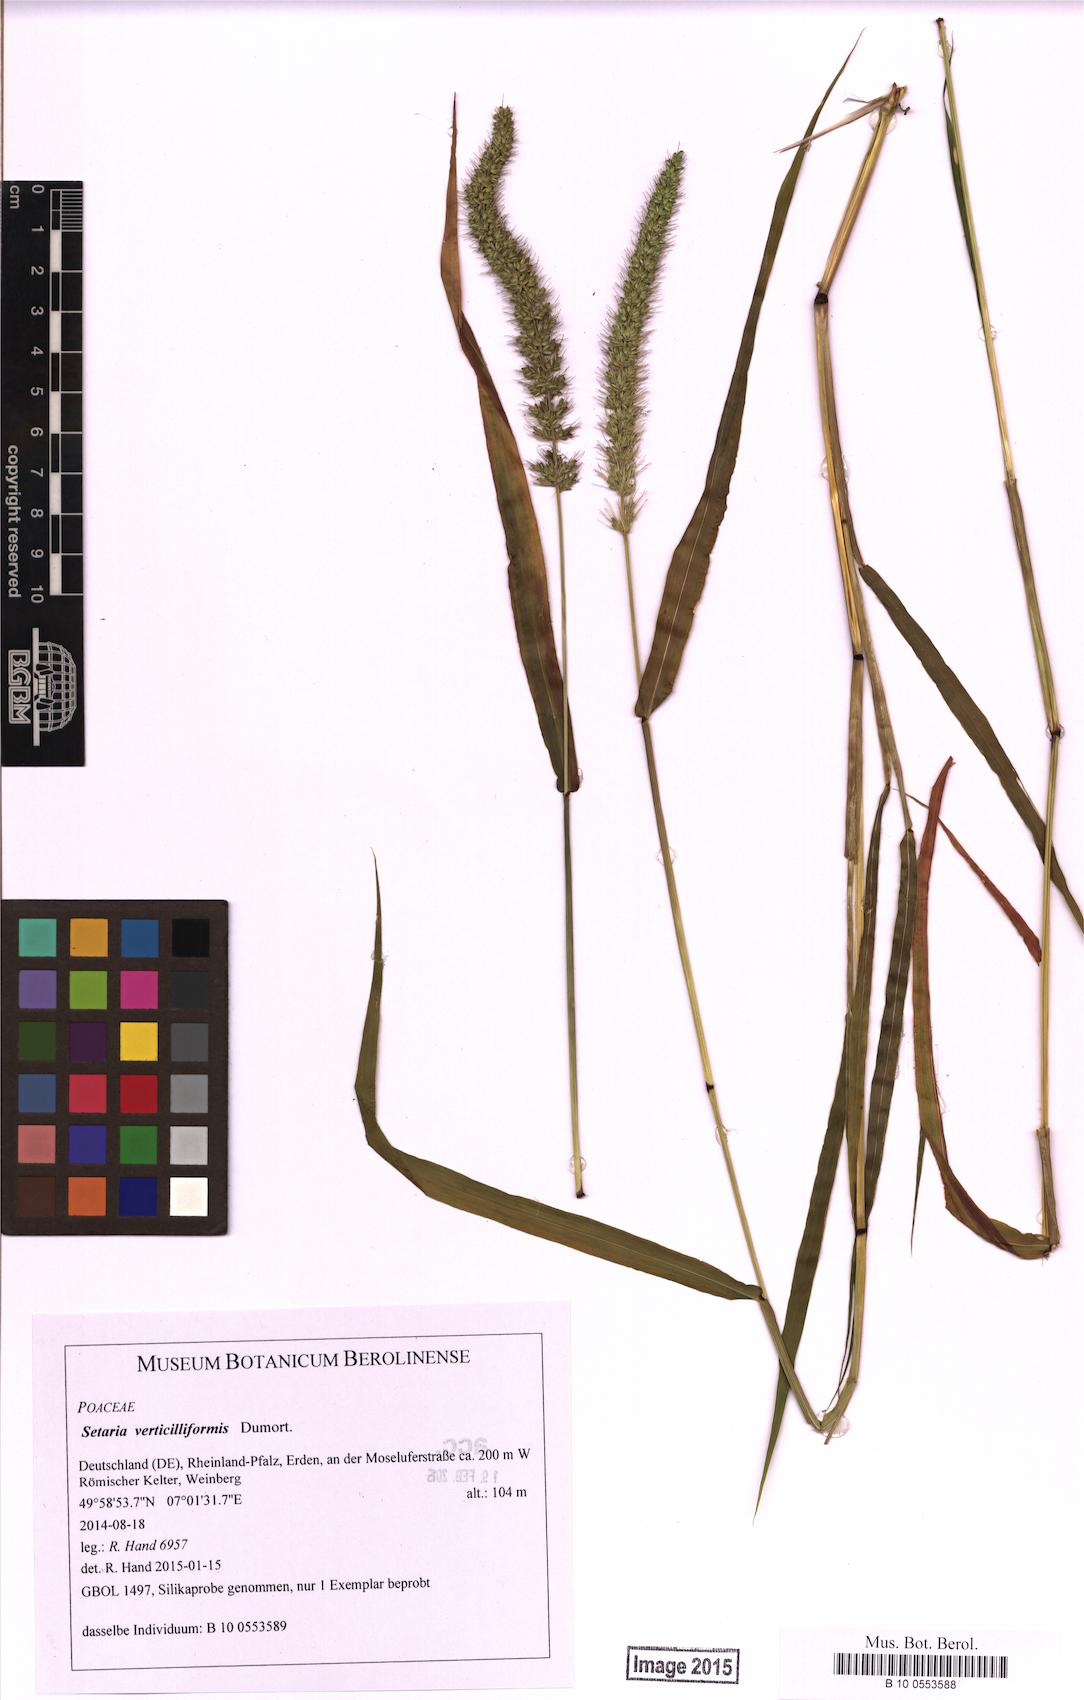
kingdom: Plantae
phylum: Tracheophyta
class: Liliopsida
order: Poales
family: Poaceae
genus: Setaria
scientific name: Setaria verticillata
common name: Hooked bristlegrass
